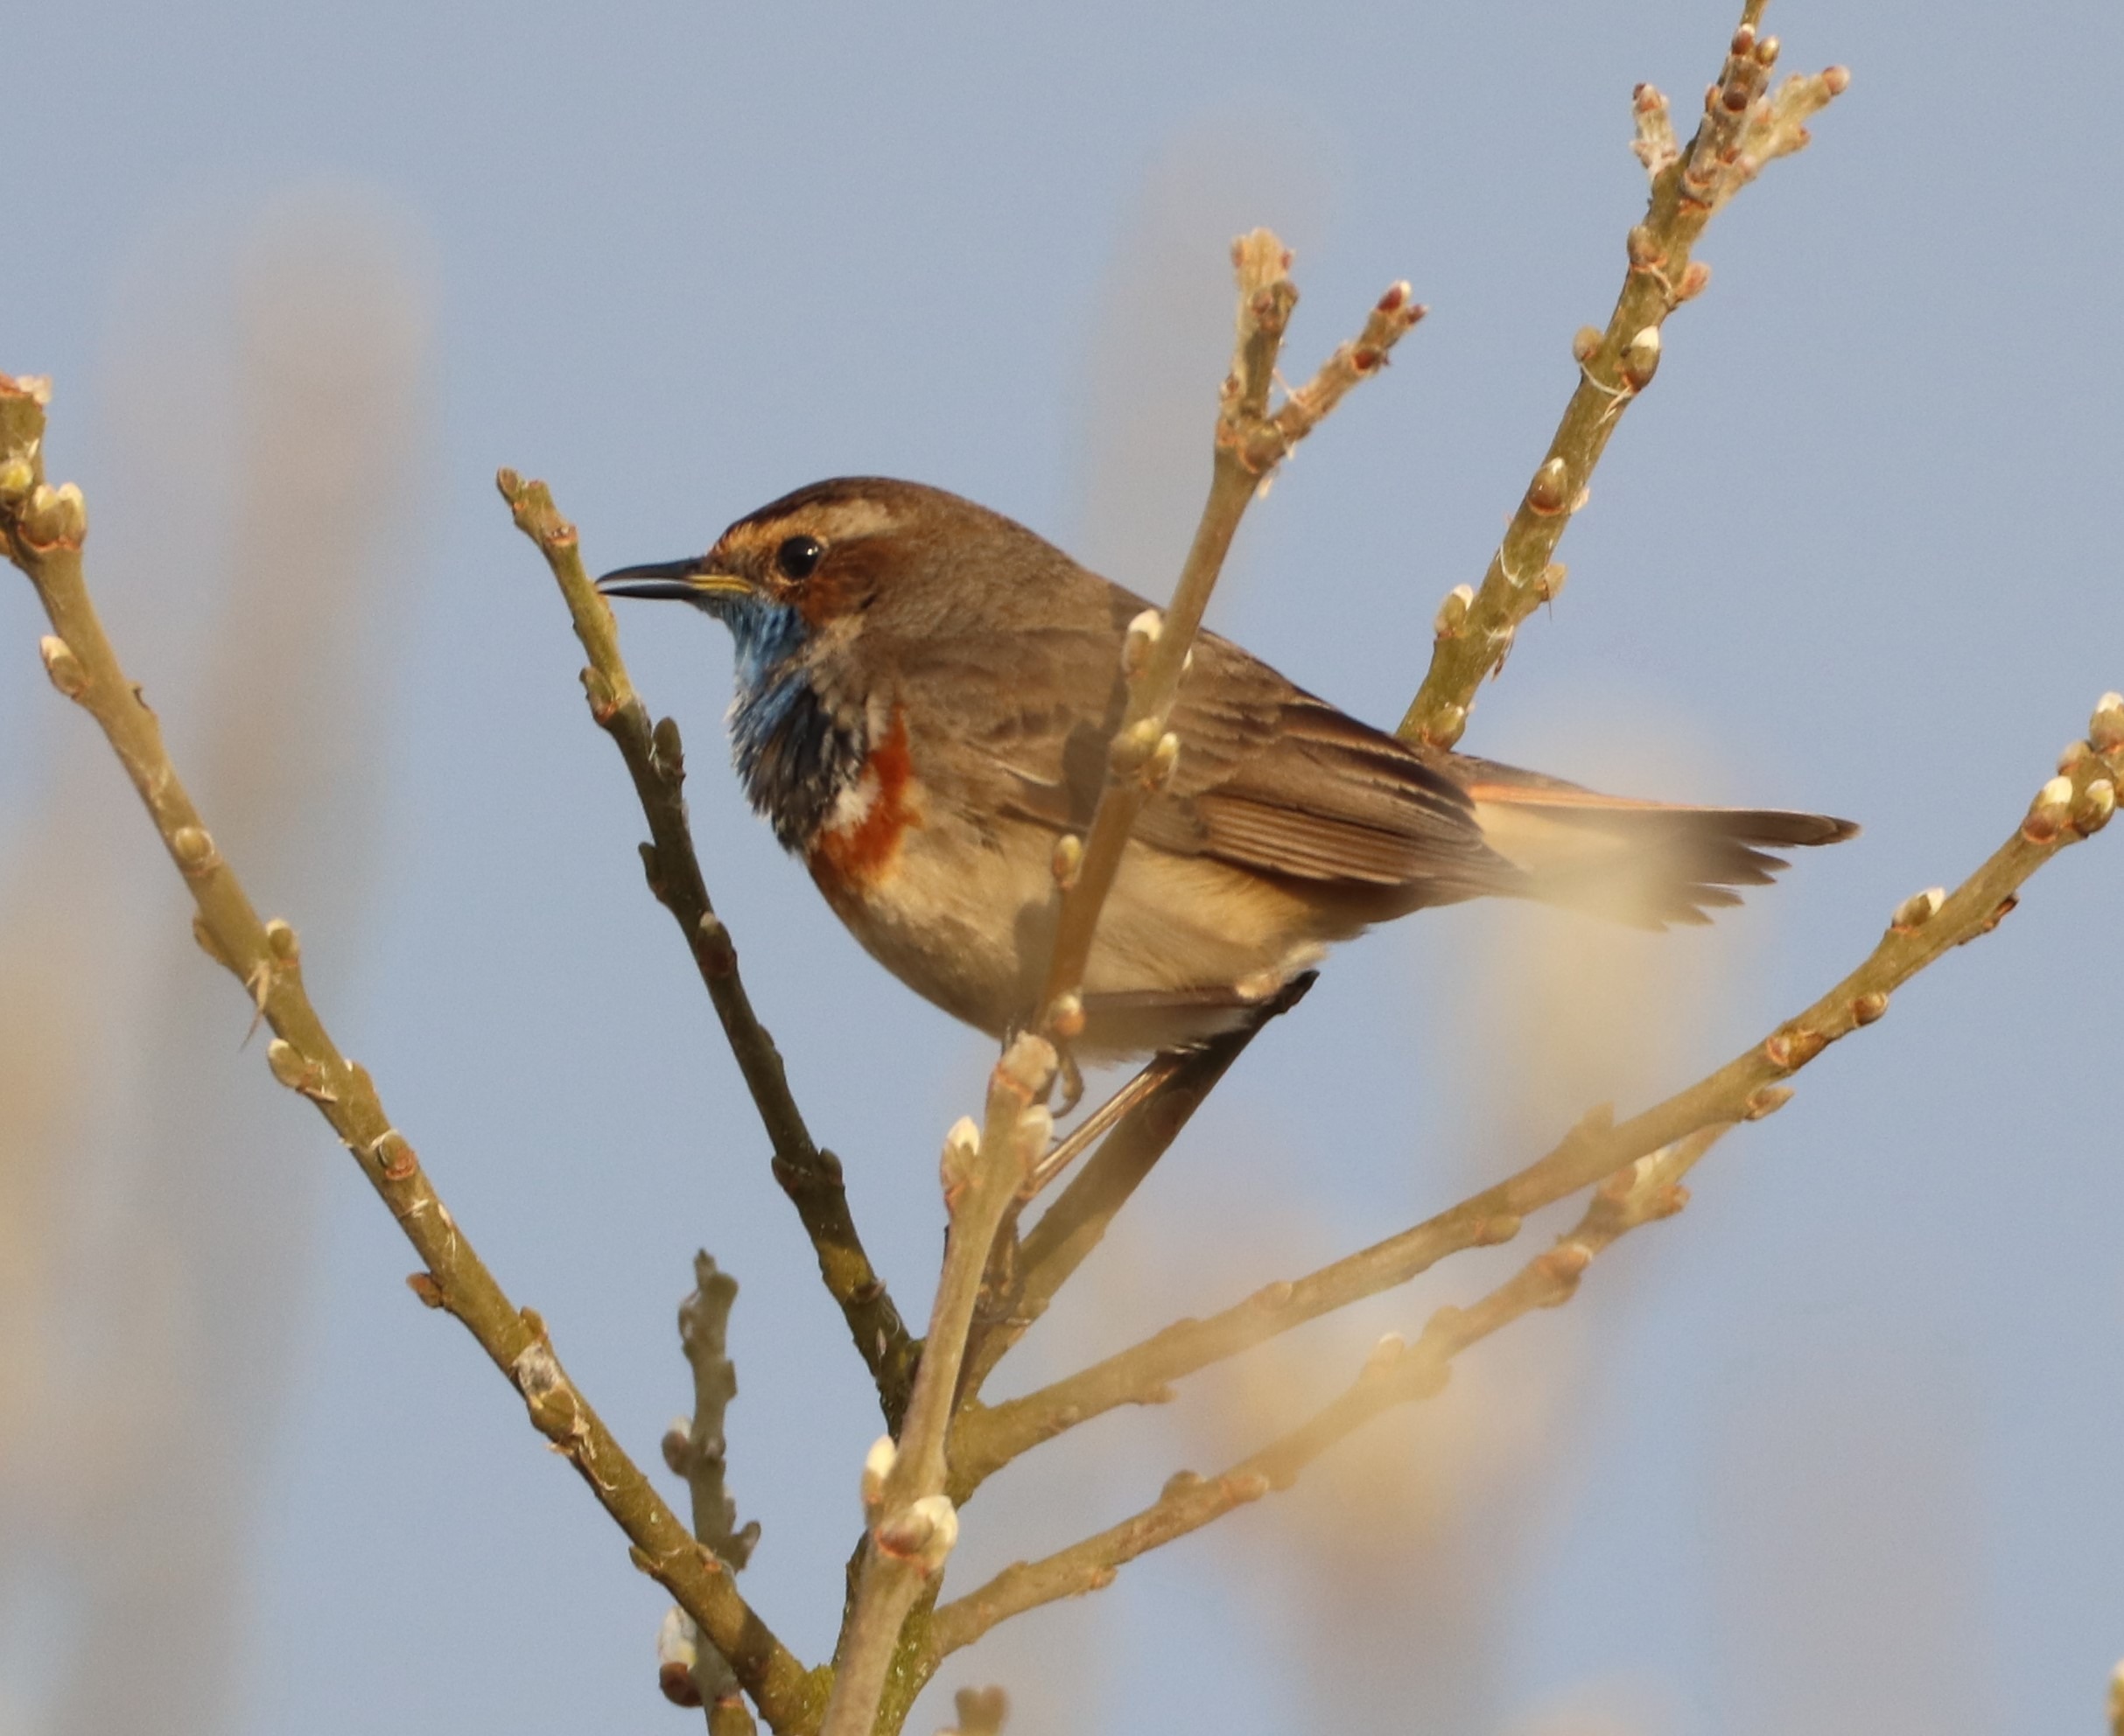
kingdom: Animalia
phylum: Chordata
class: Aves
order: Passeriformes
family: Muscicapidae
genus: Luscinia
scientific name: Luscinia svecica
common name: Blåhals
